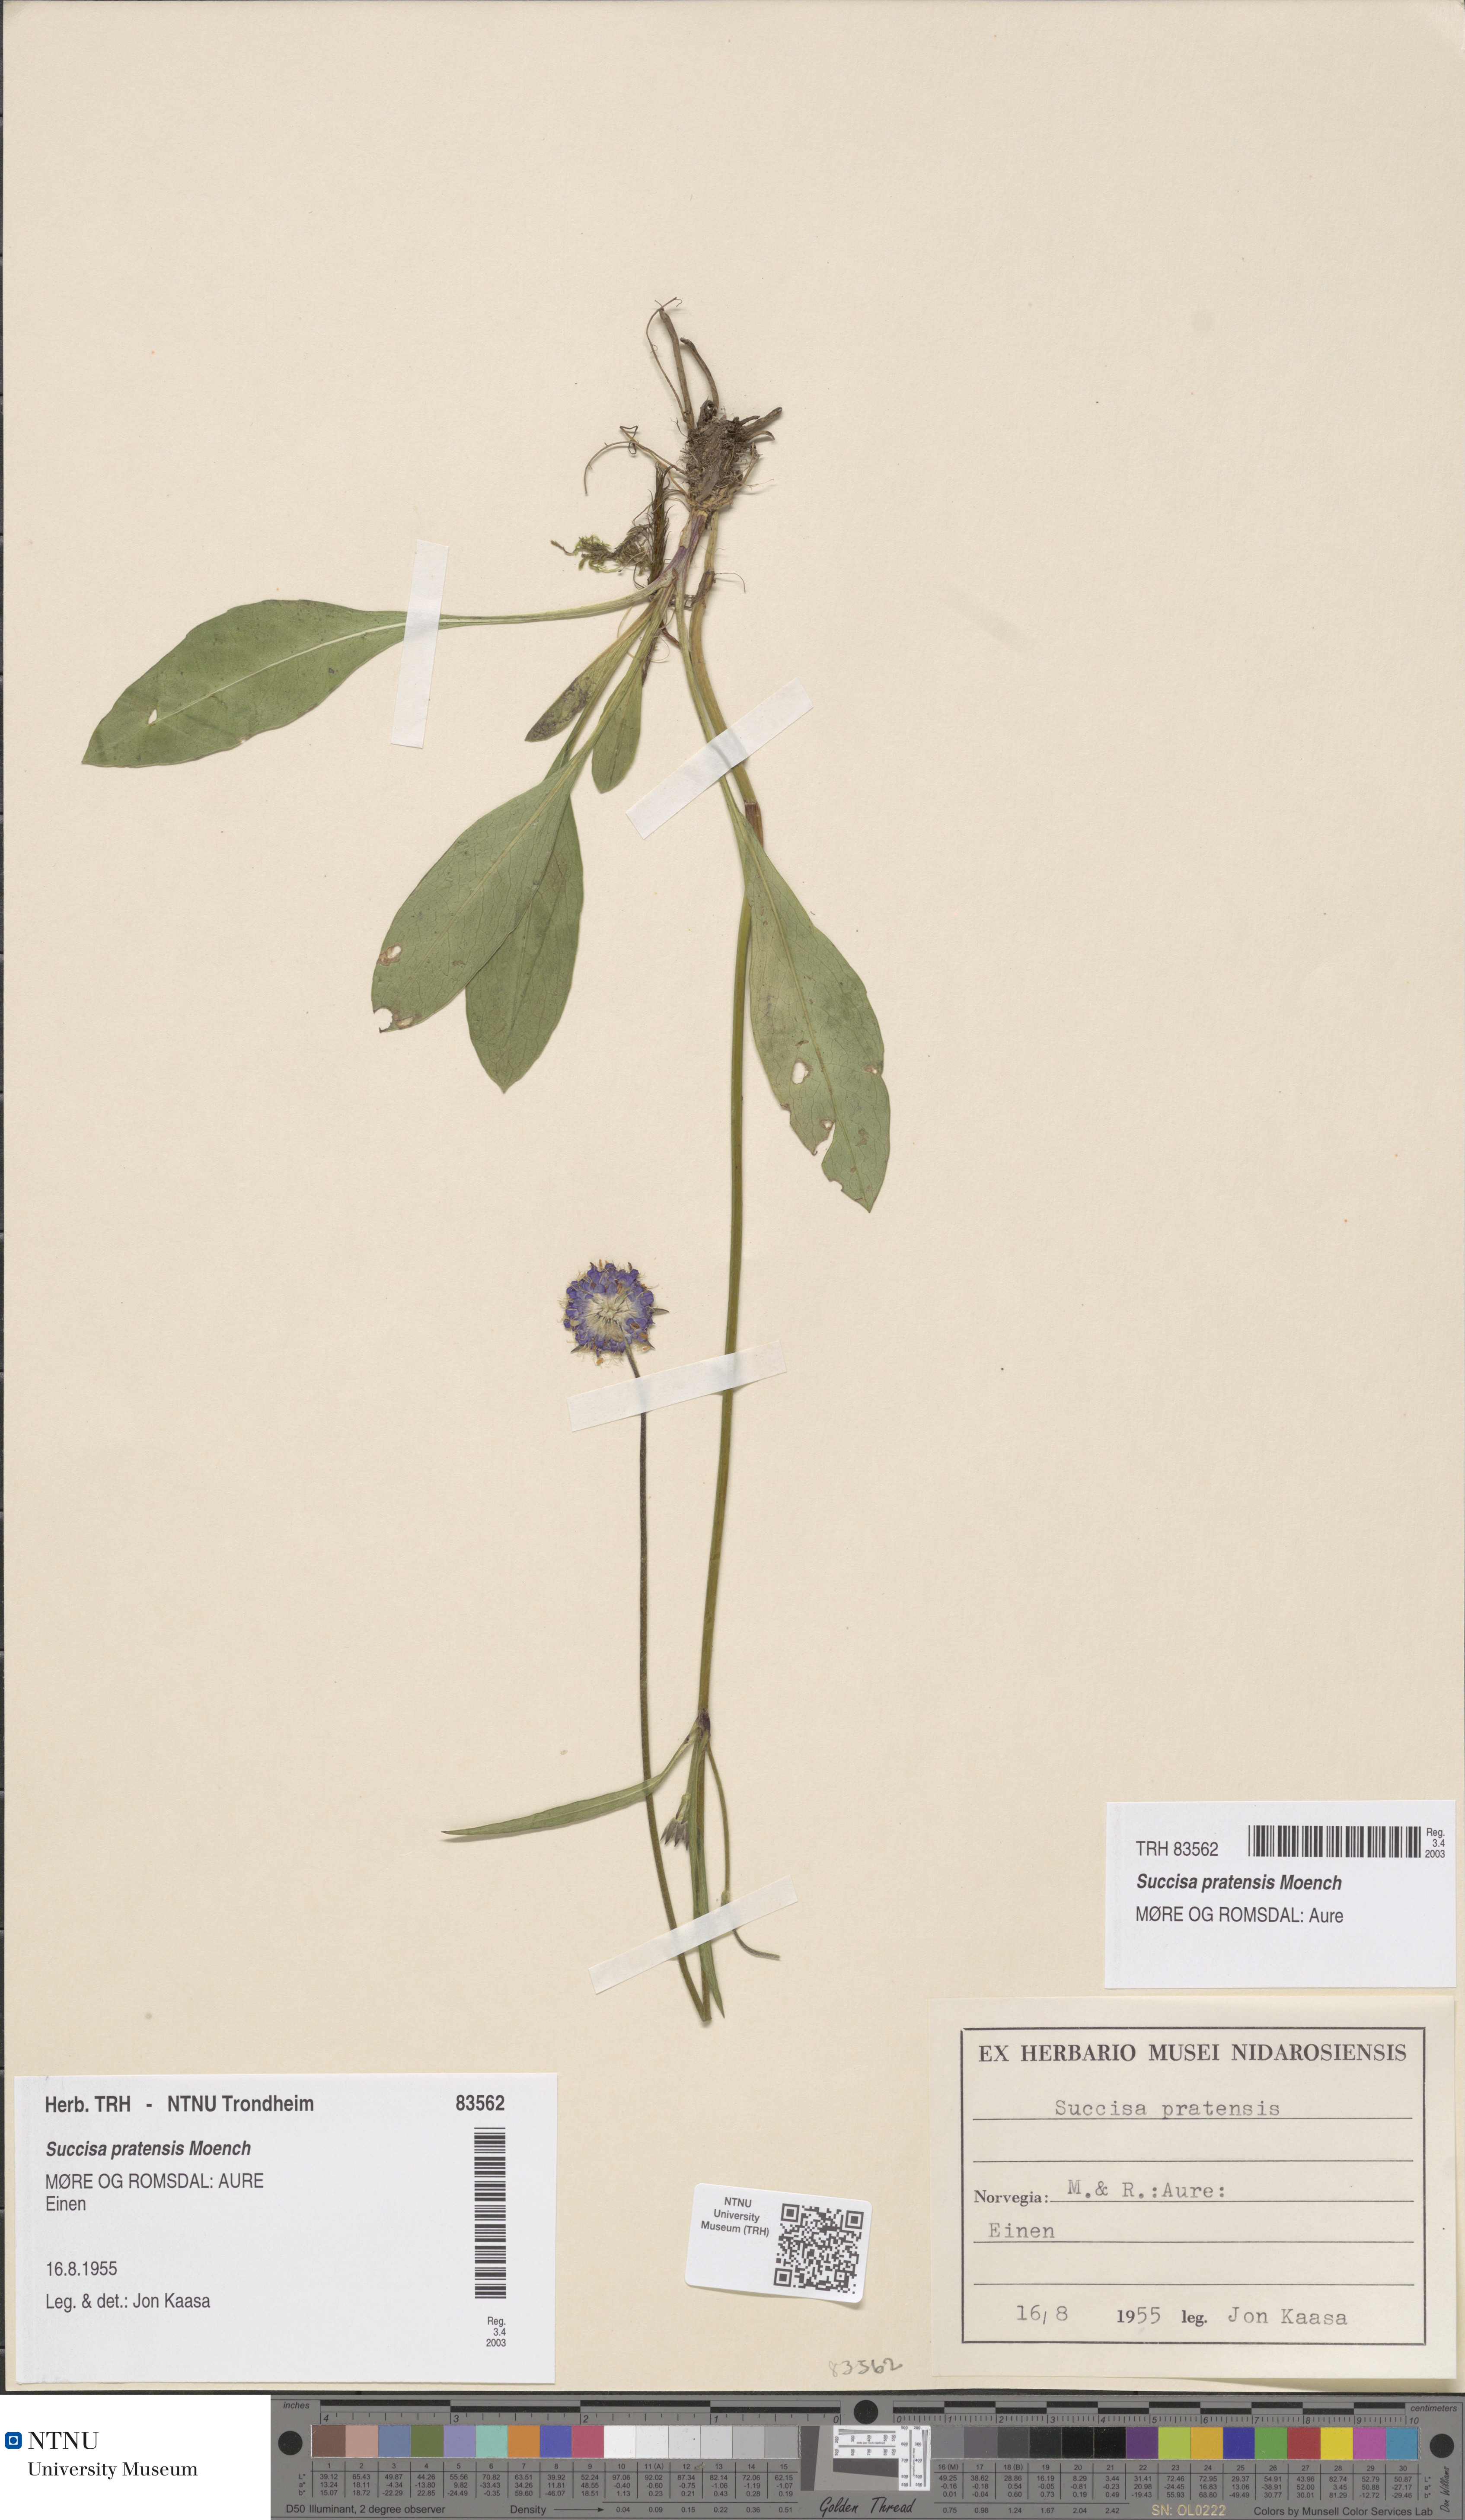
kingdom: Plantae
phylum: Tracheophyta
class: Magnoliopsida
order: Dipsacales
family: Caprifoliaceae
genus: Succisa
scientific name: Succisa pratensis
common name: Devil's-bit
